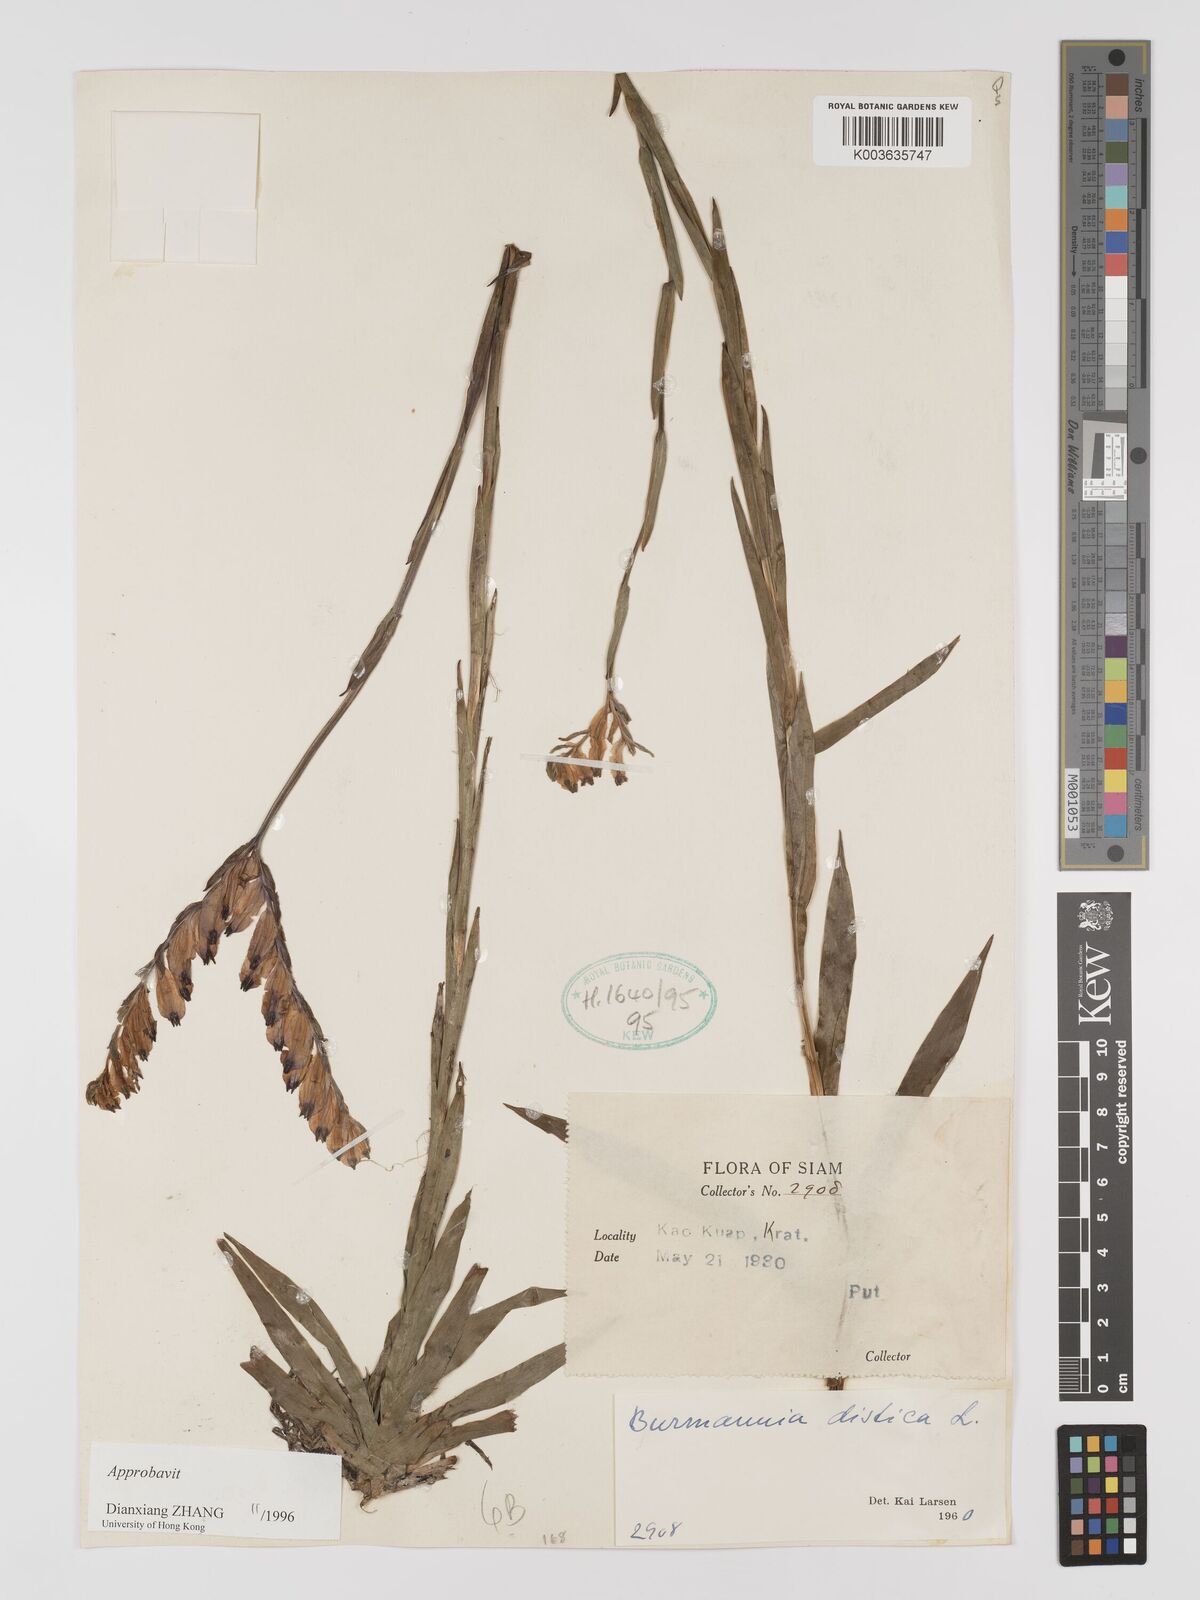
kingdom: Plantae
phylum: Tracheophyta
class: Liliopsida
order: Dioscoreales
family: Burmanniaceae
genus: Burmannia
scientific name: Burmannia disticha
